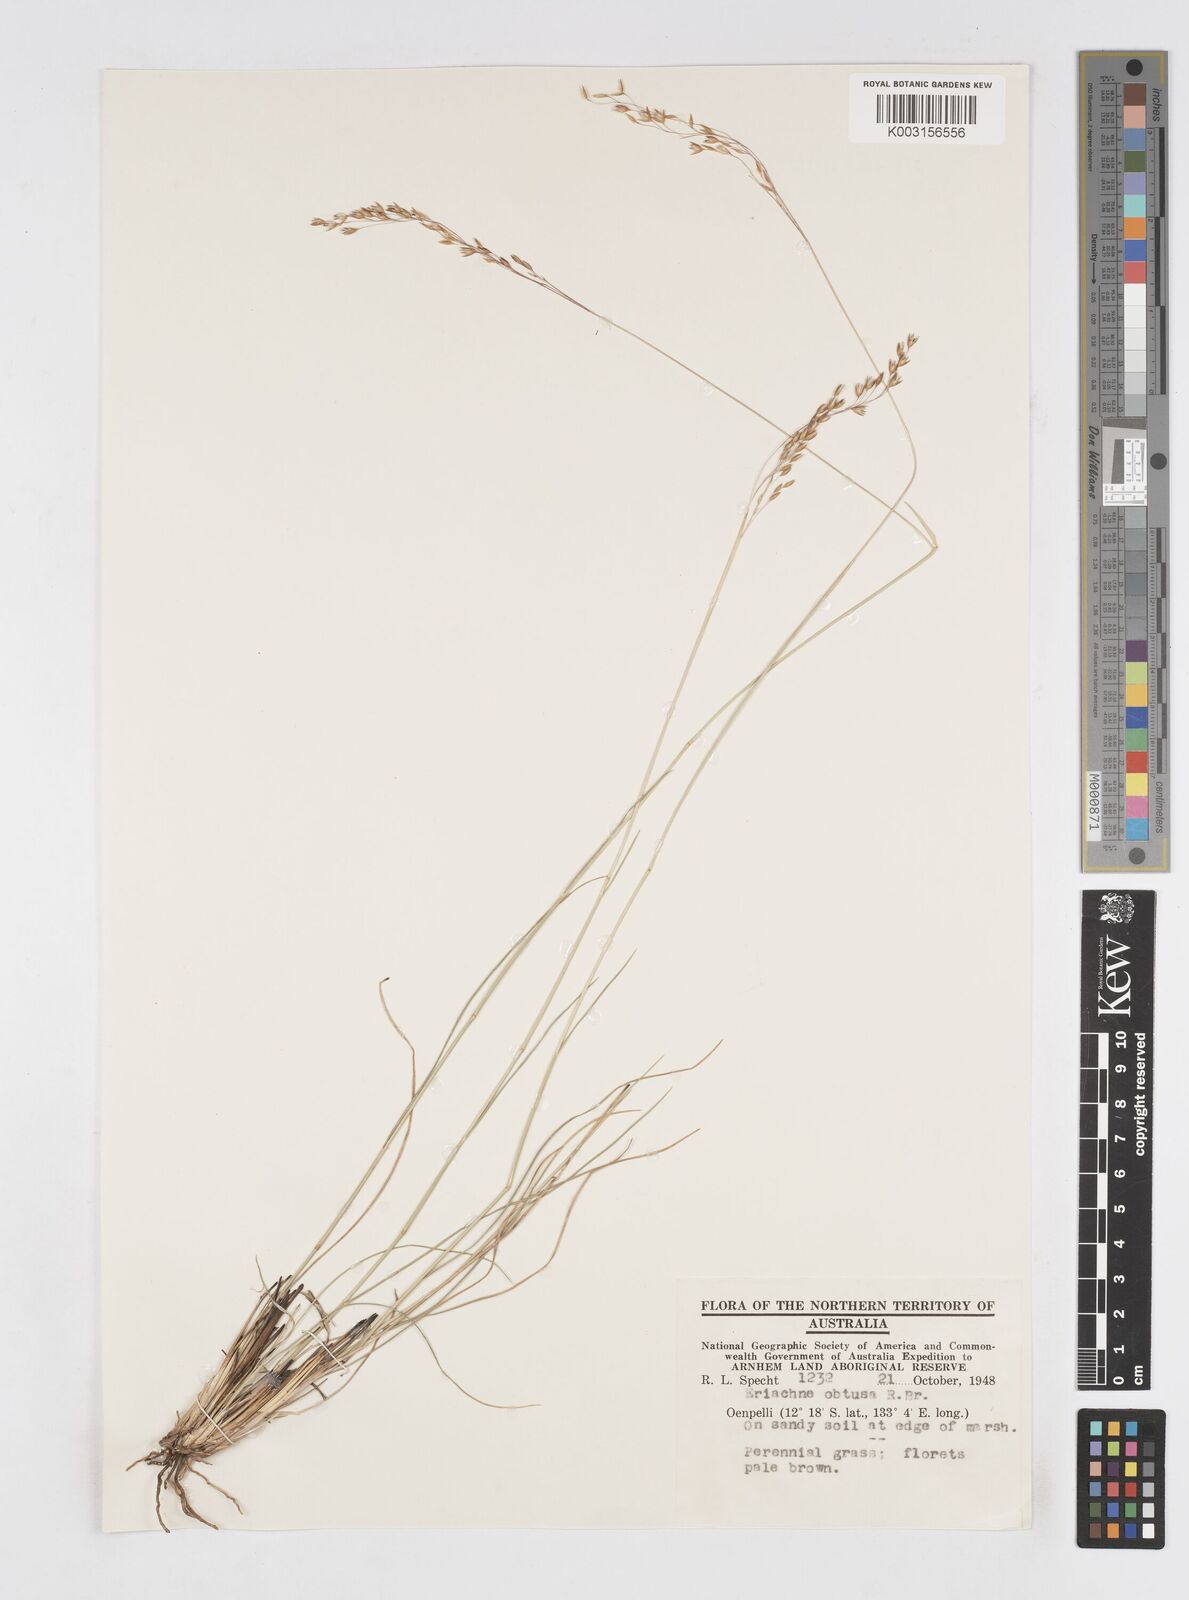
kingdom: Plantae
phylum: Tracheophyta
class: Liliopsida
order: Poales
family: Poaceae
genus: Eriachne
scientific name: Eriachne obtusa
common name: Northern wanderrie grass
